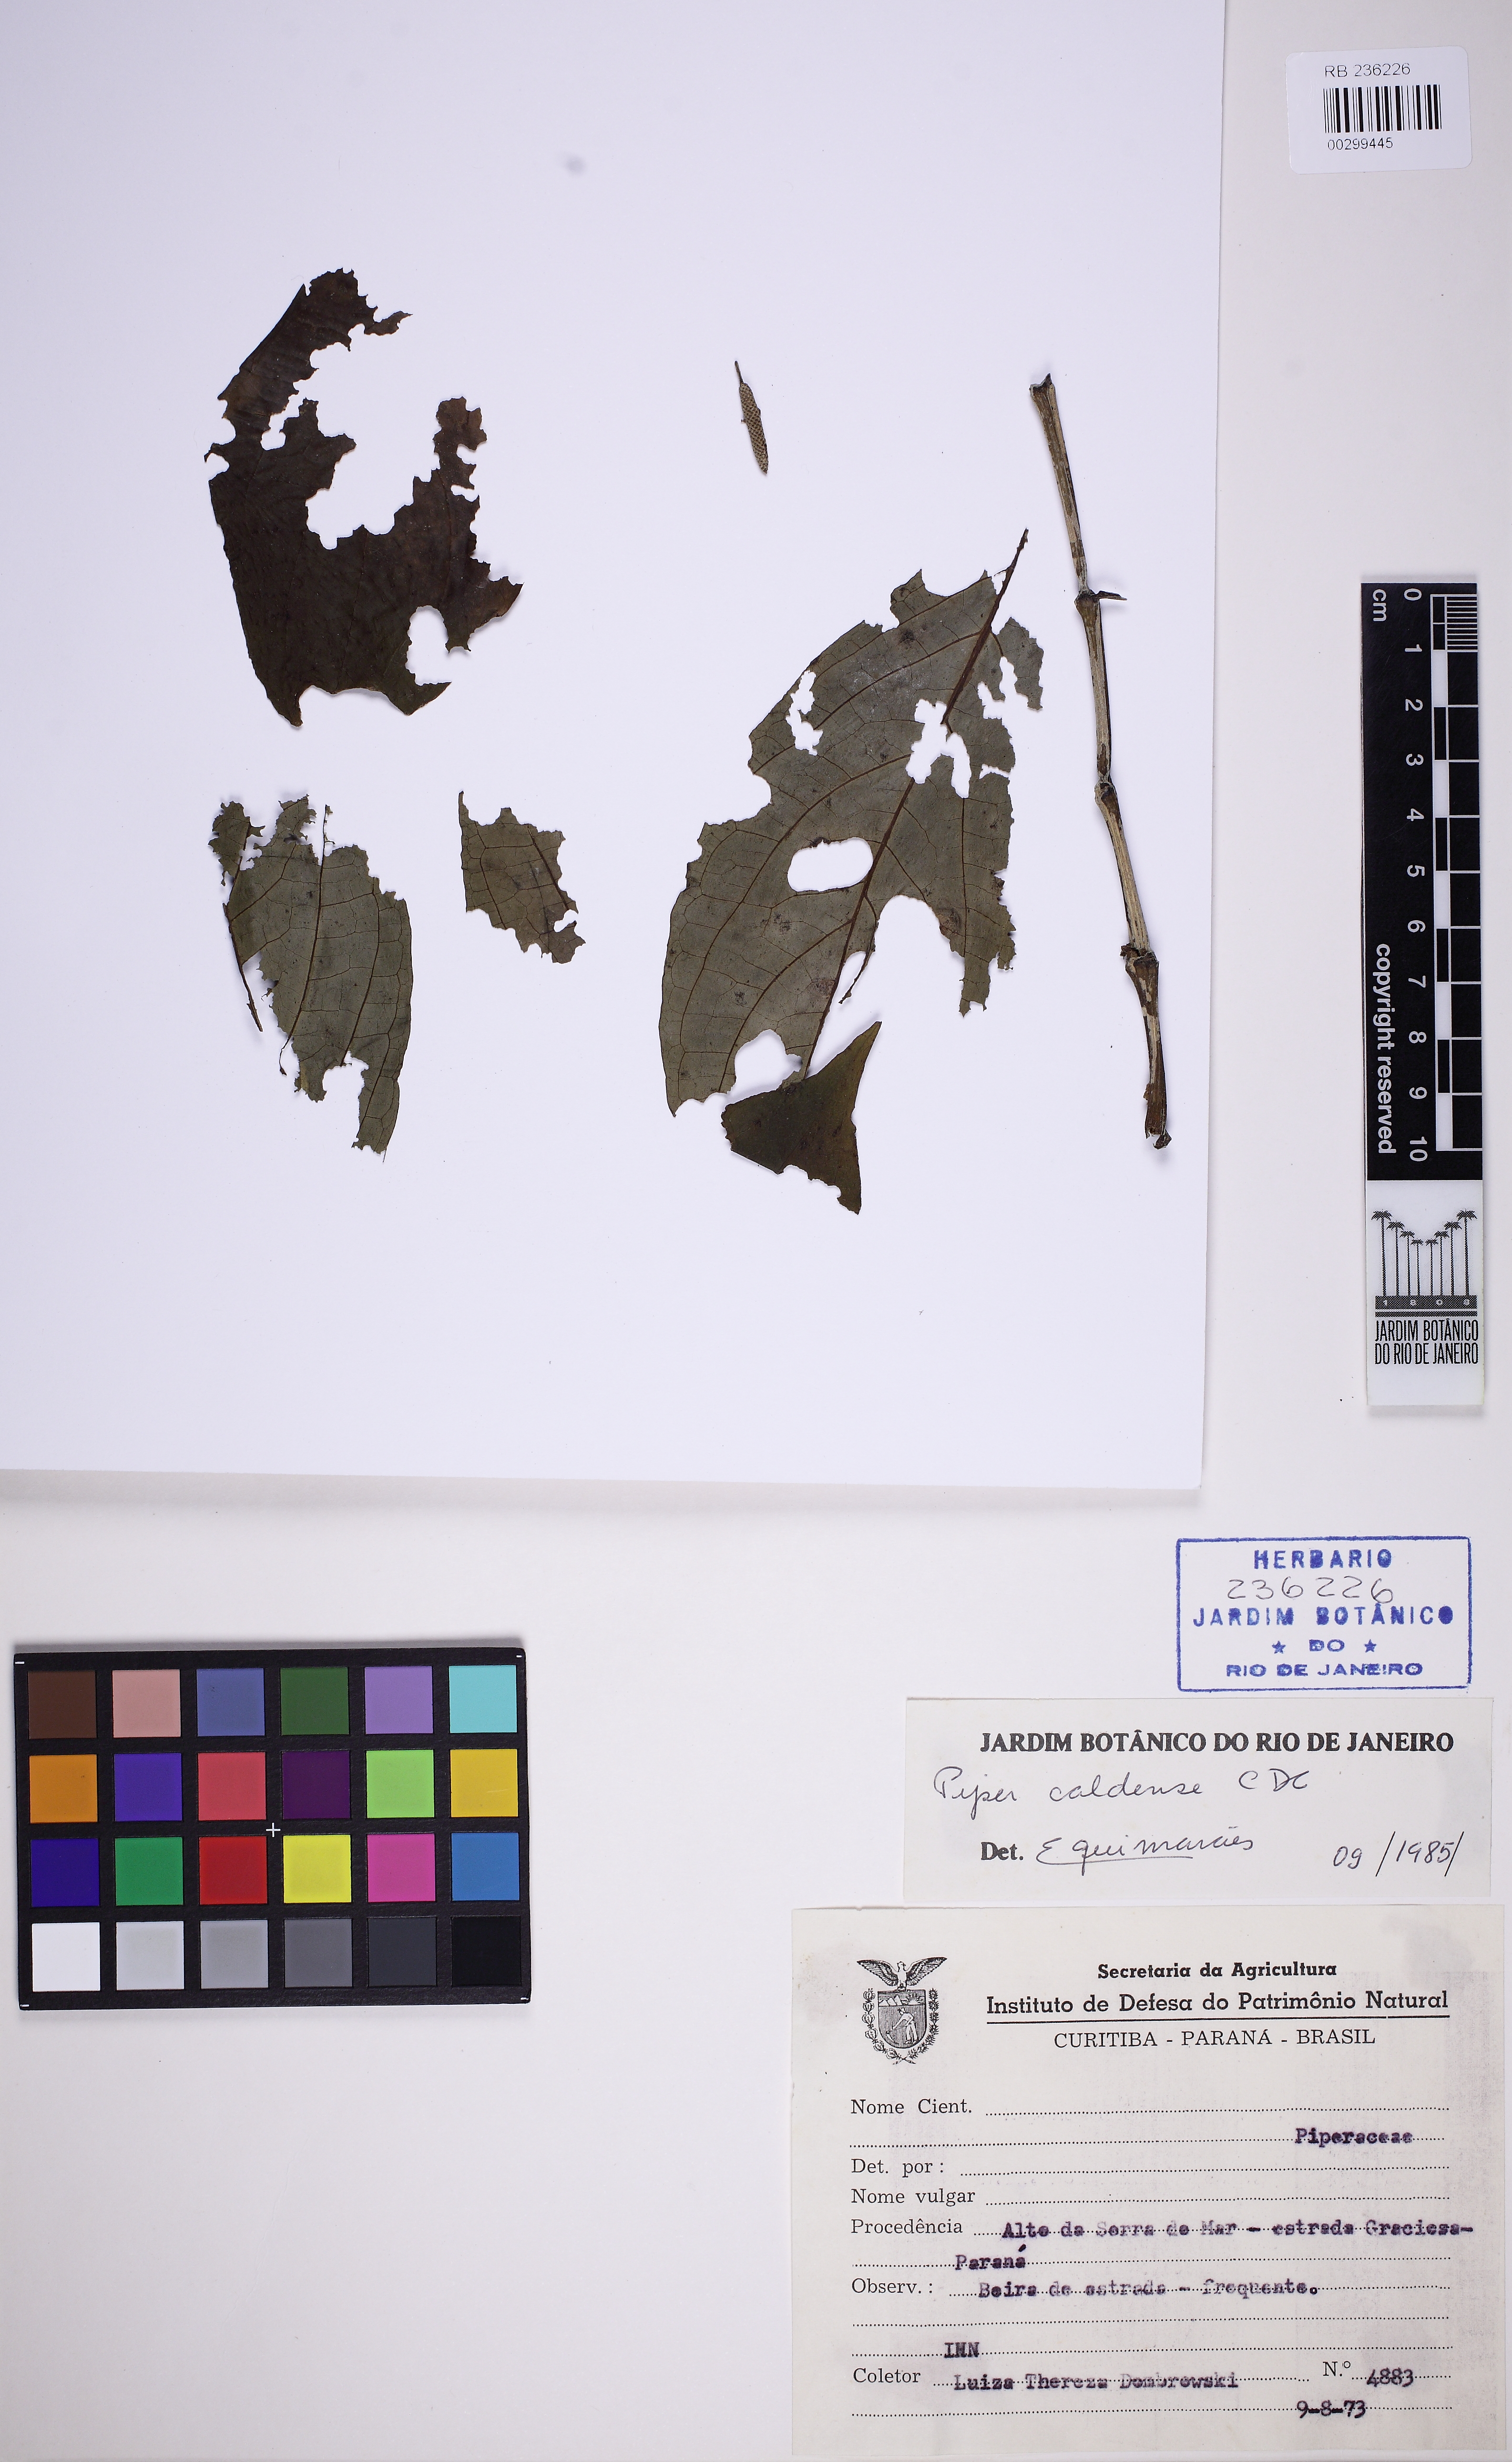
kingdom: Plantae
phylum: Tracheophyta
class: Magnoliopsida
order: Piperales
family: Piperaceae
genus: Piper
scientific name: Piper caldense
